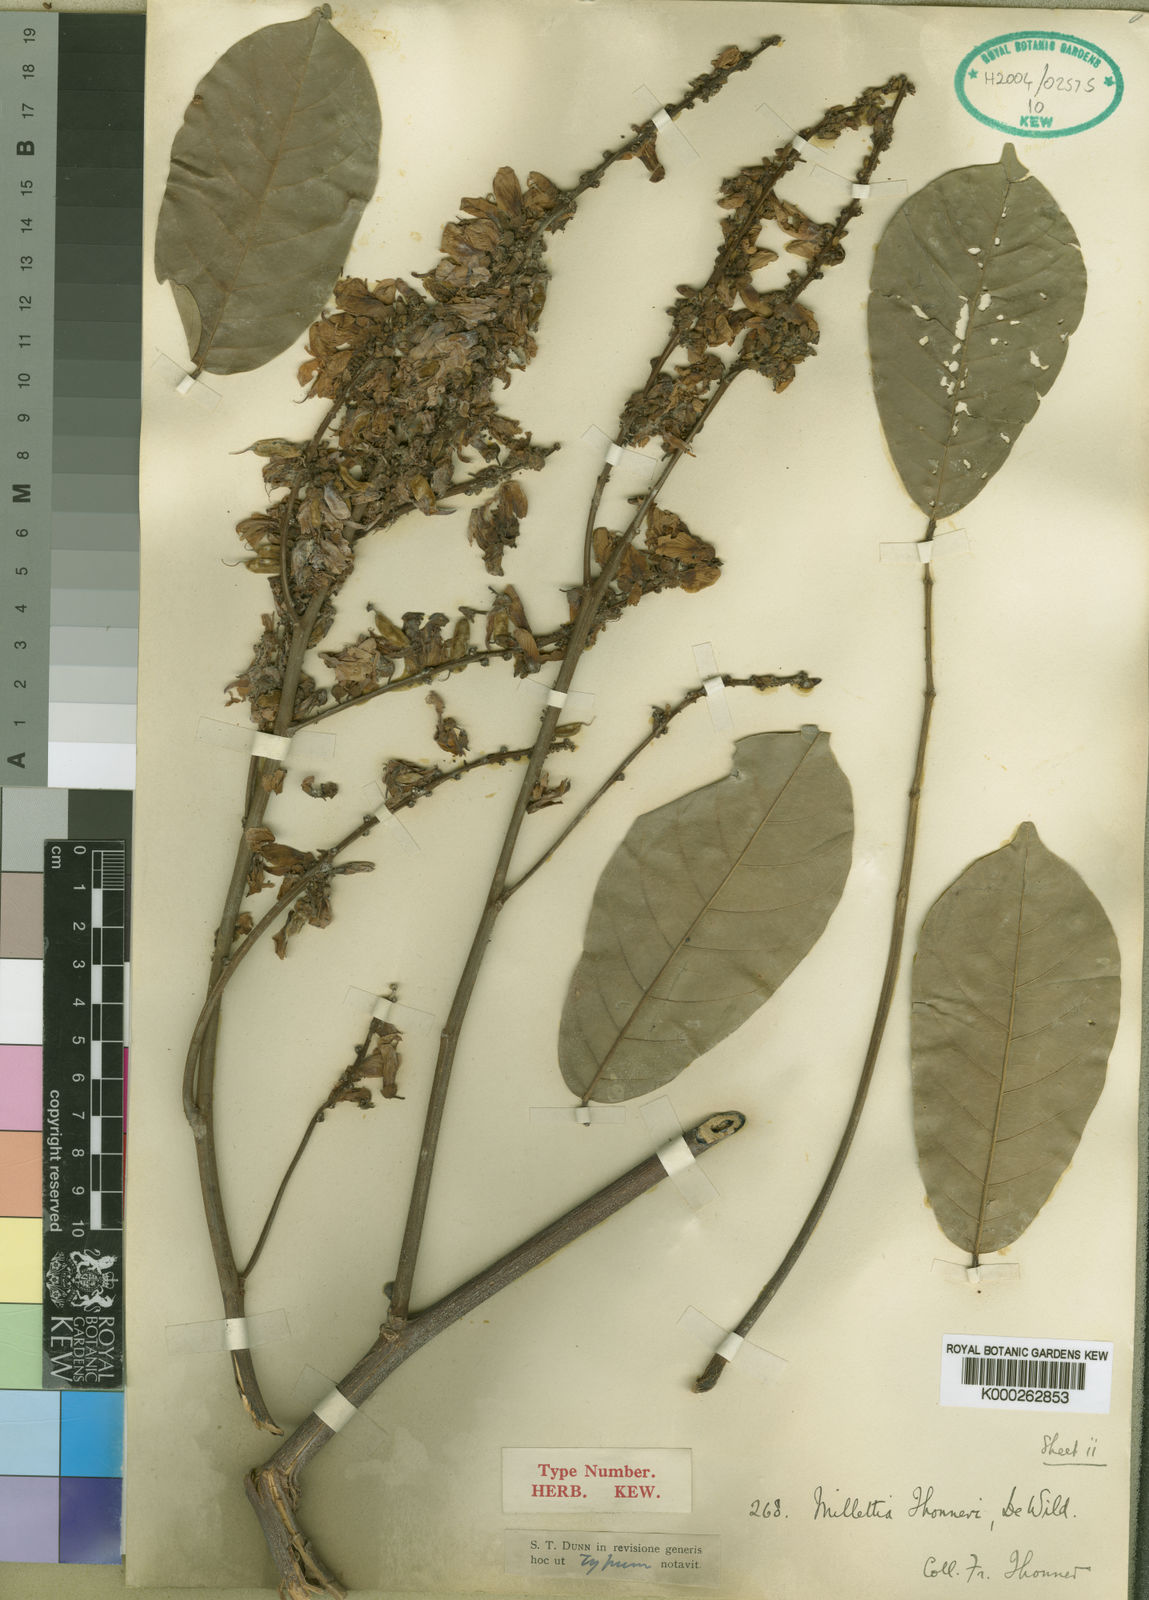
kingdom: Plantae
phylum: Tracheophyta
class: Magnoliopsida
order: Fabales
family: Fabaceae
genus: Millettia
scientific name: Millettia thonneri
